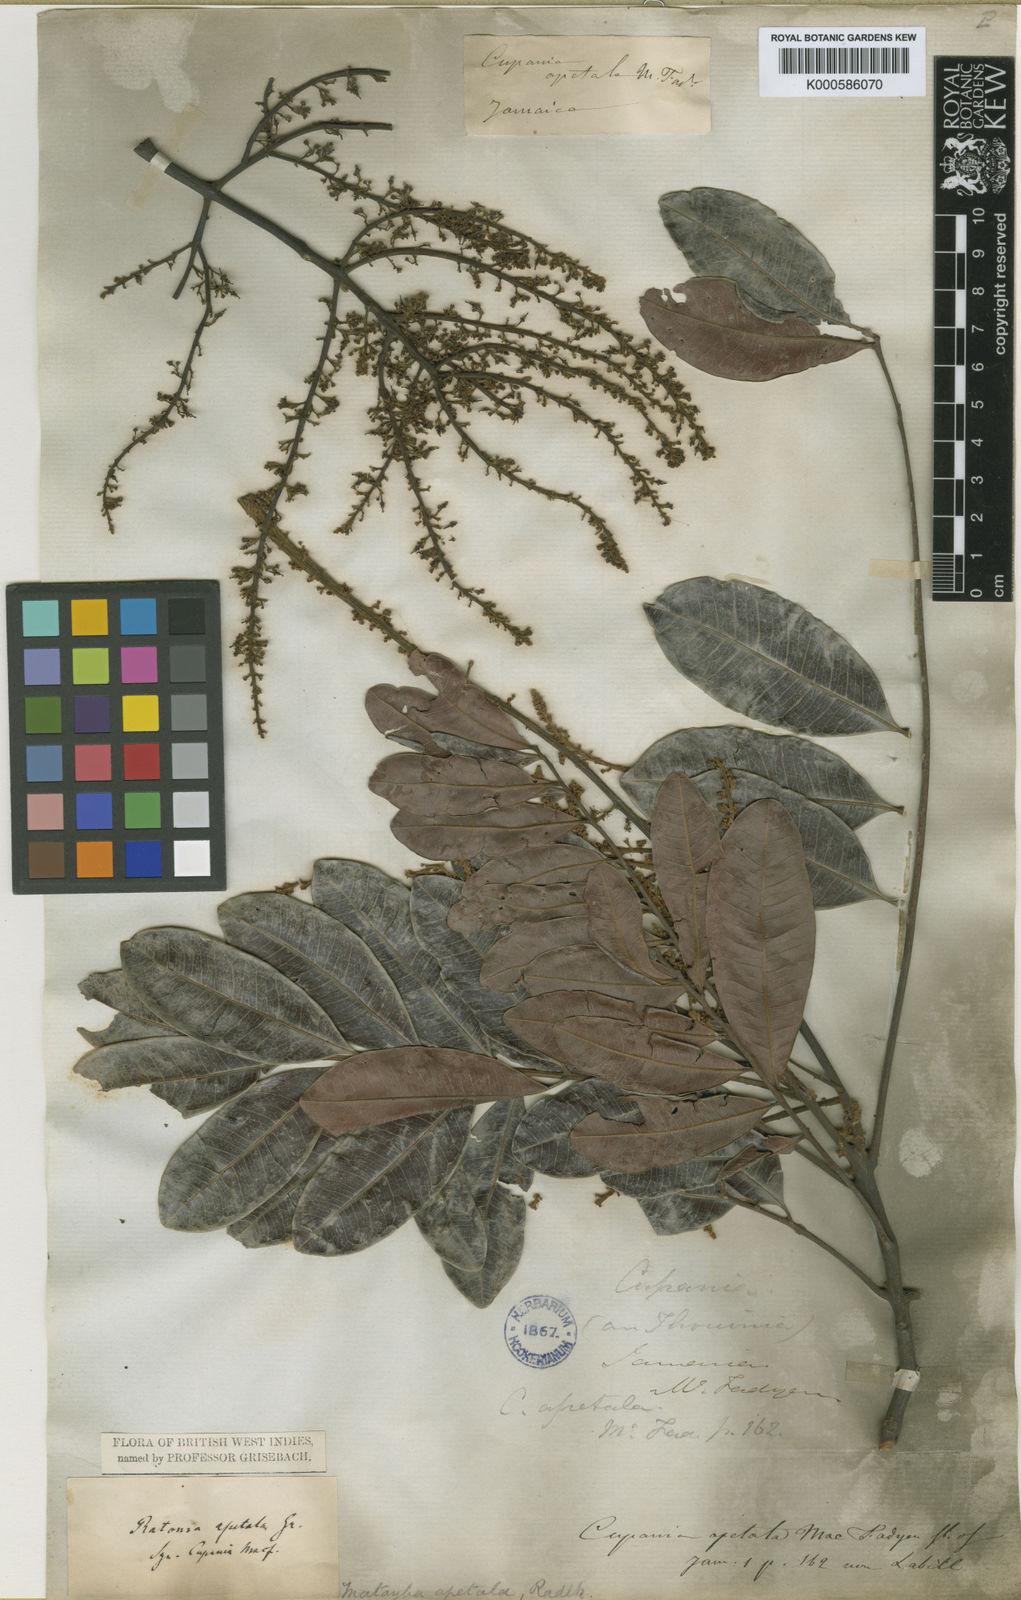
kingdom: Plantae
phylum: Tracheophyta
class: Magnoliopsida
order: Sapindales
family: Sapindaceae
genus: Matayba
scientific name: Matayba apetala
